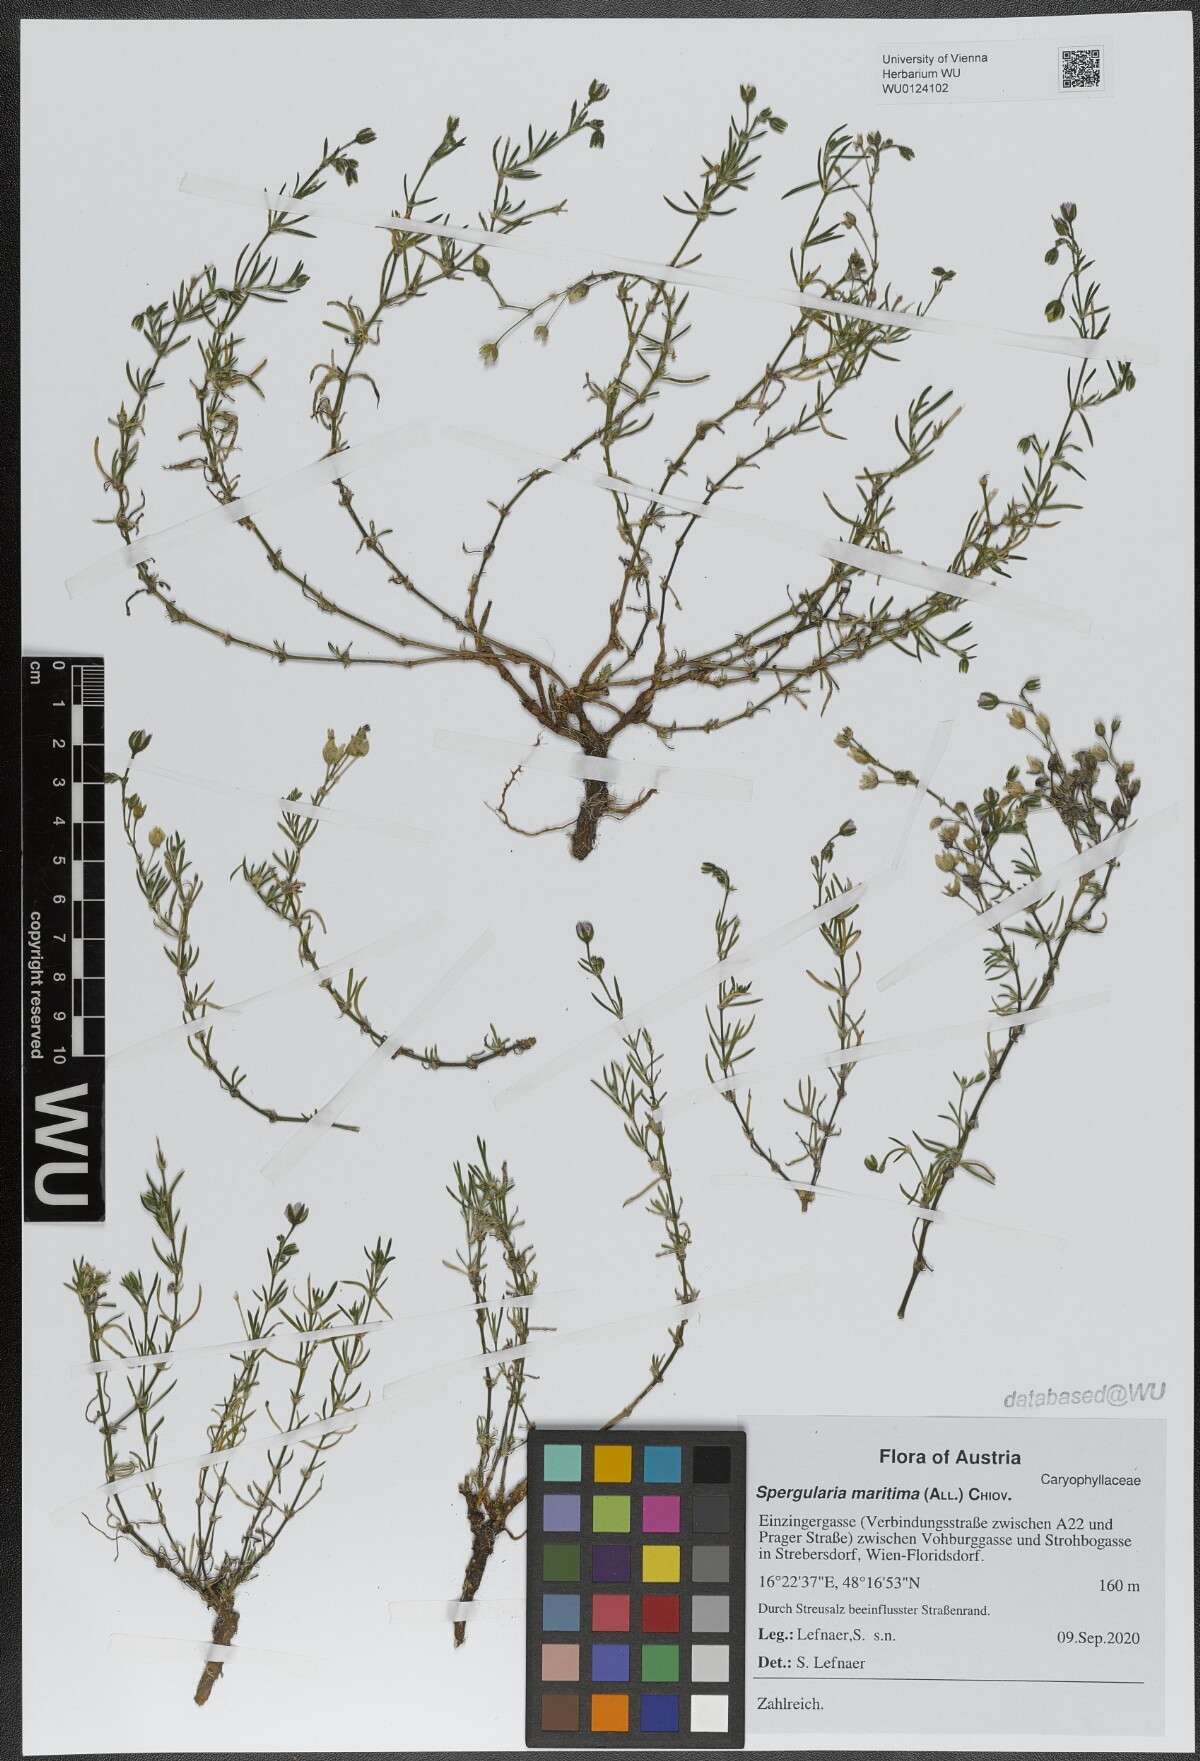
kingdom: Plantae
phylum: Tracheophyta
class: Magnoliopsida
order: Caryophyllales
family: Caryophyllaceae
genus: Spergularia
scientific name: Spergularia media
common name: Greater sea-spurrey
